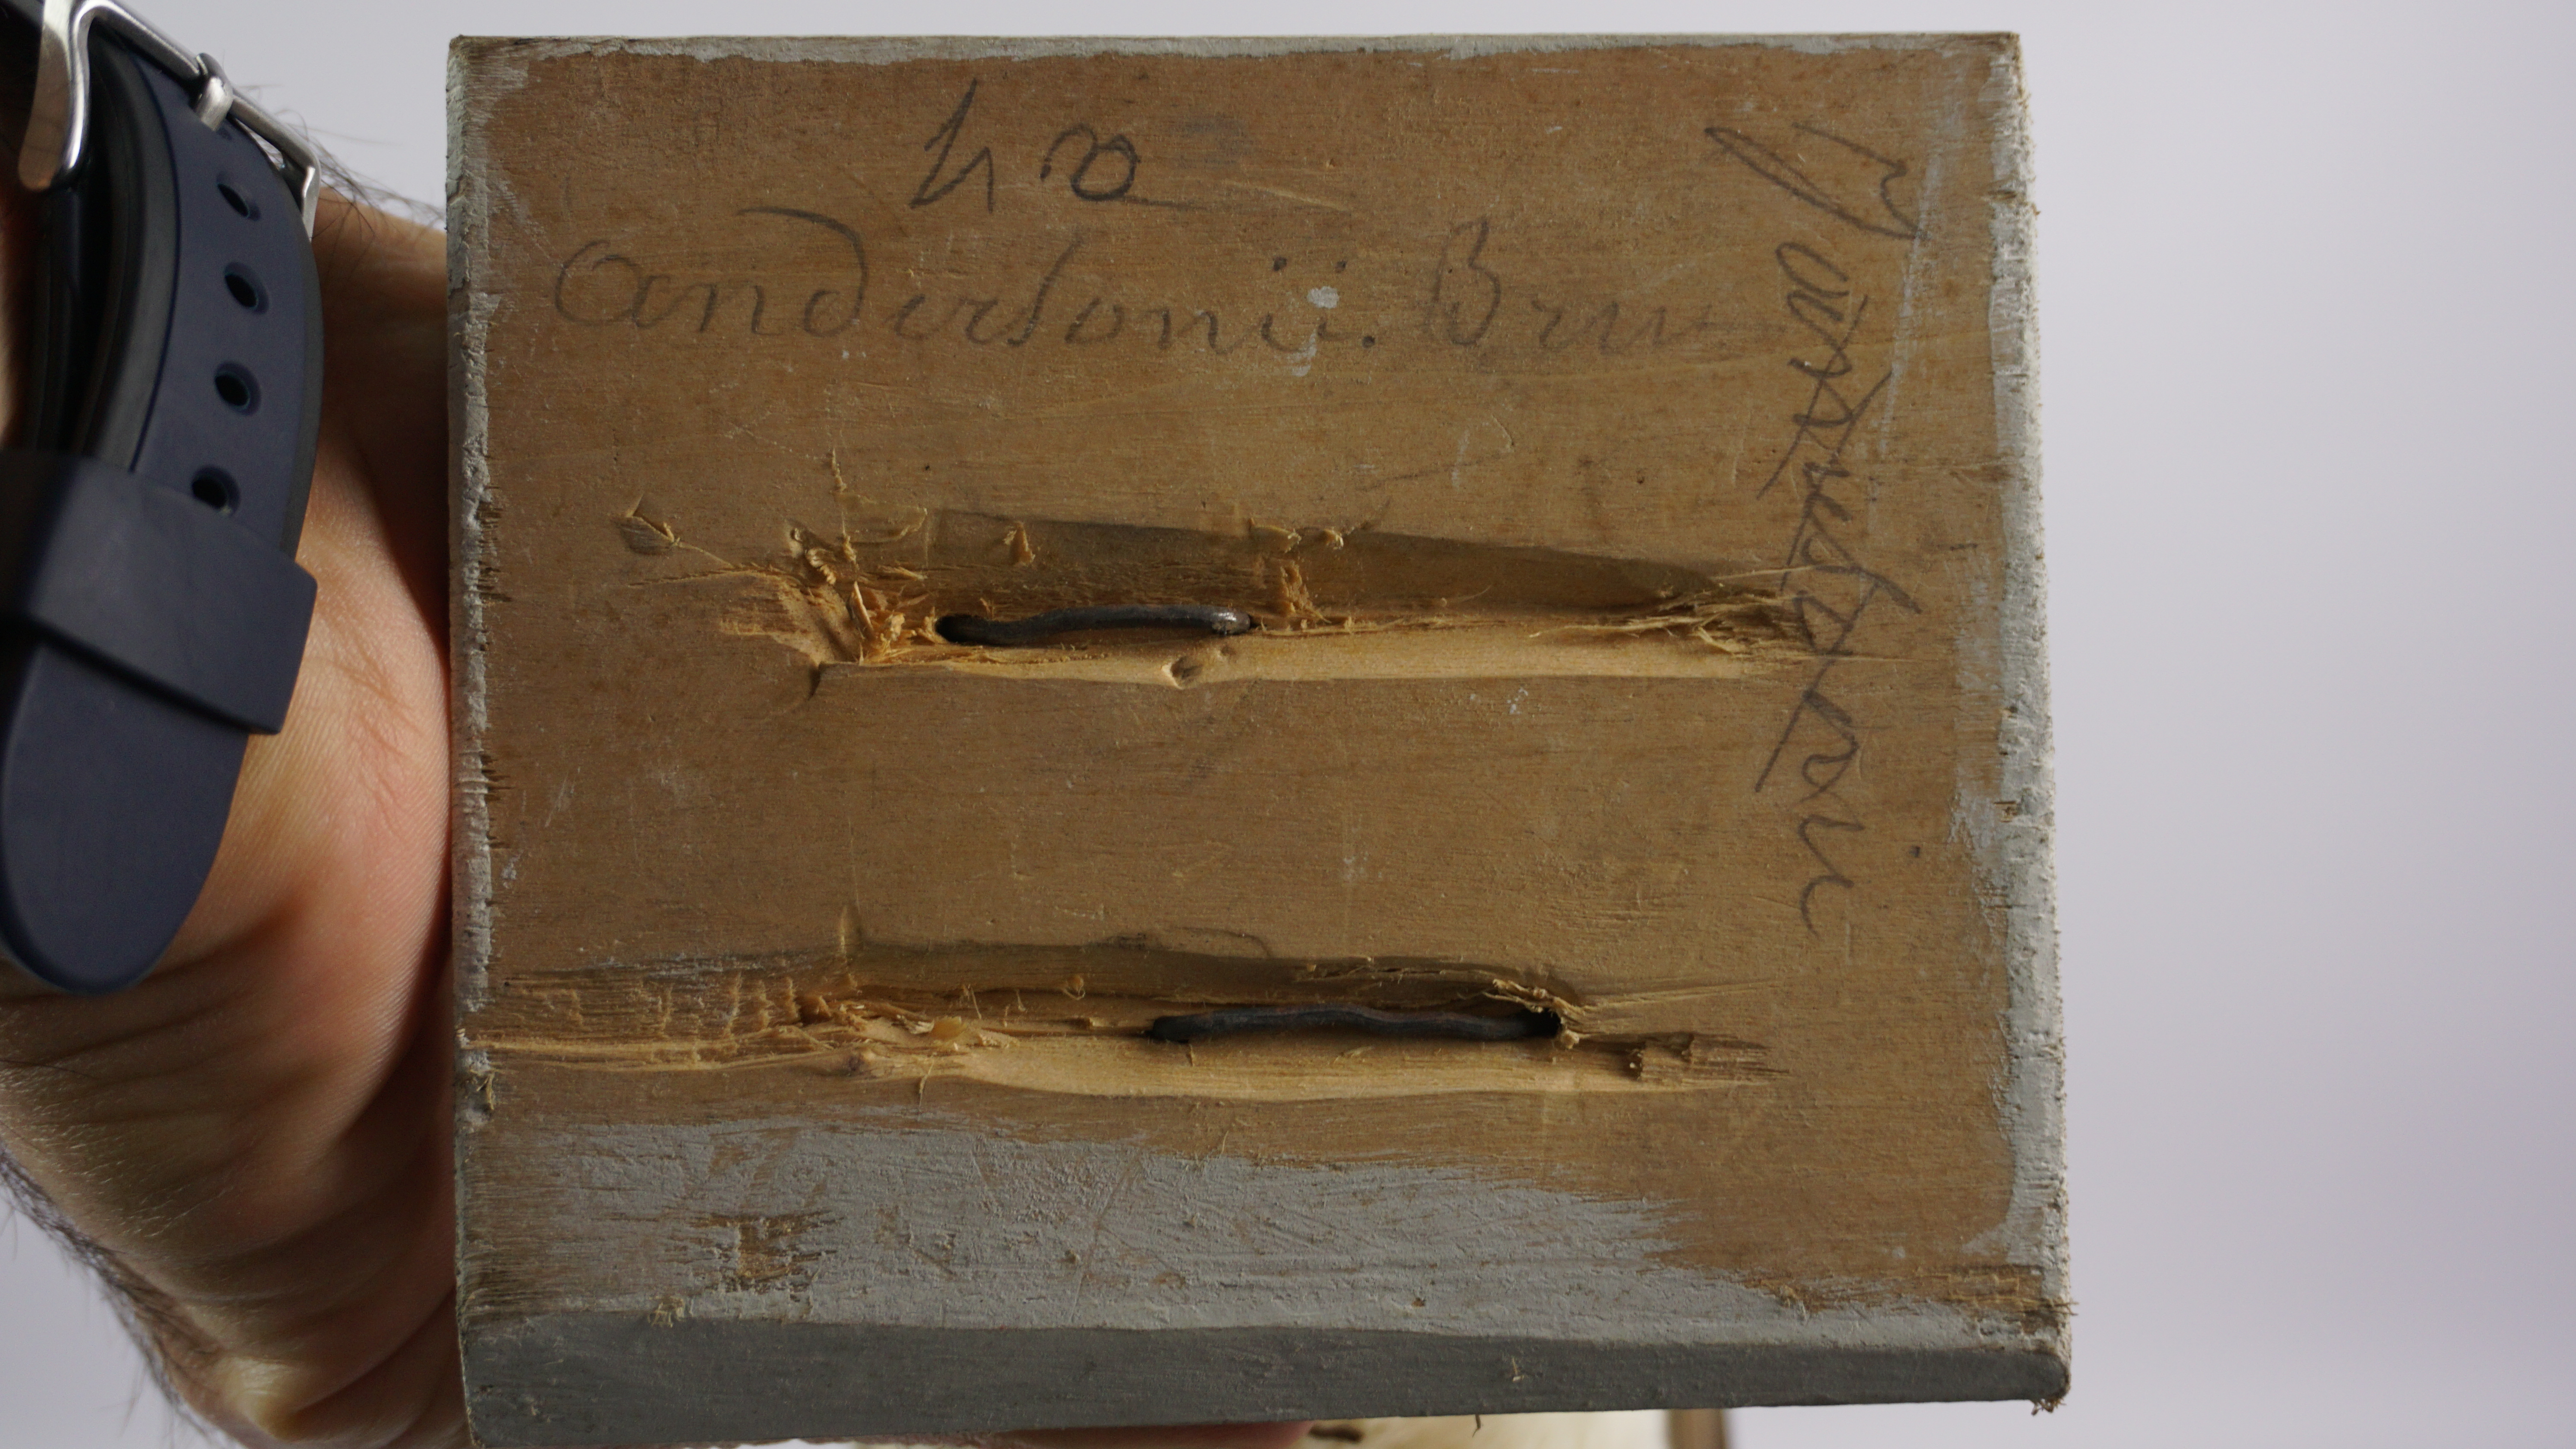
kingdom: Animalia
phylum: Chordata
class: Aves
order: Charadriiformes
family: Laridae
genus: Chroicocephalus
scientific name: Chroicocephalus novaehollandiae
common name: Silver gull
